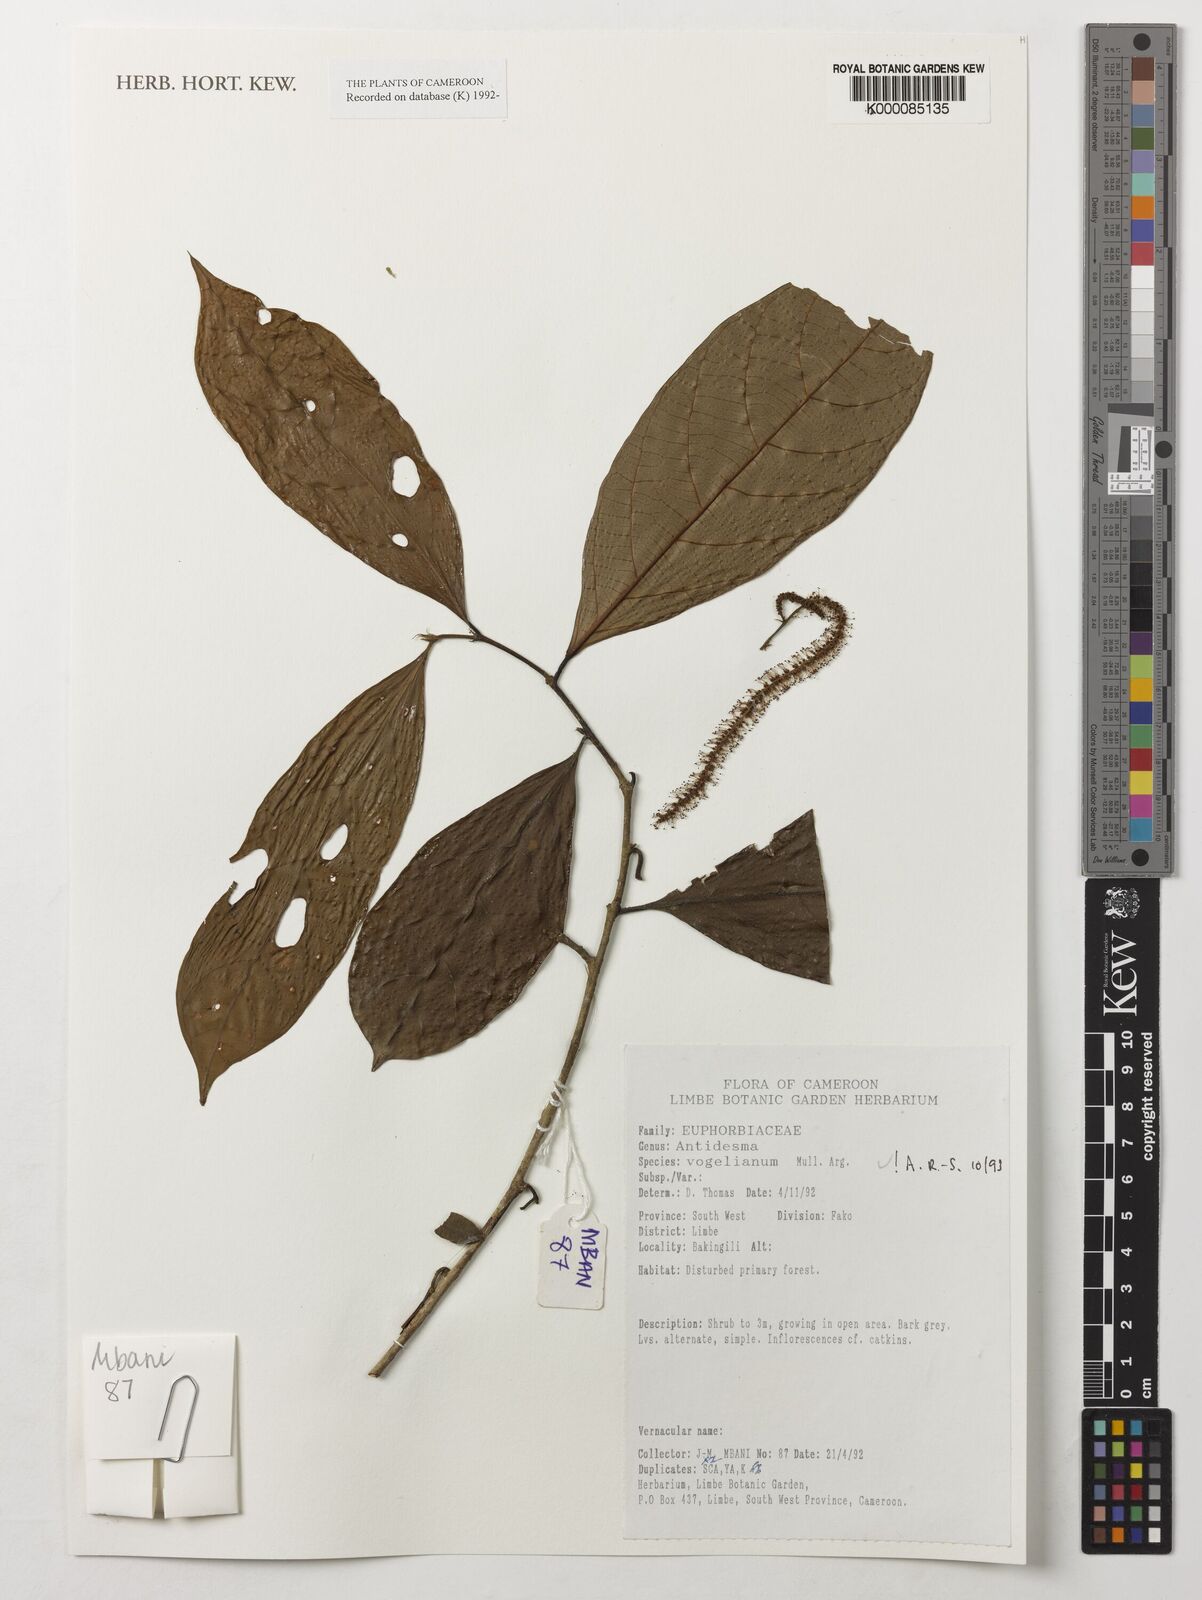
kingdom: Plantae
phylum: Tracheophyta
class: Magnoliopsida
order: Malpighiales
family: Phyllanthaceae
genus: Antidesma
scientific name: Antidesma
